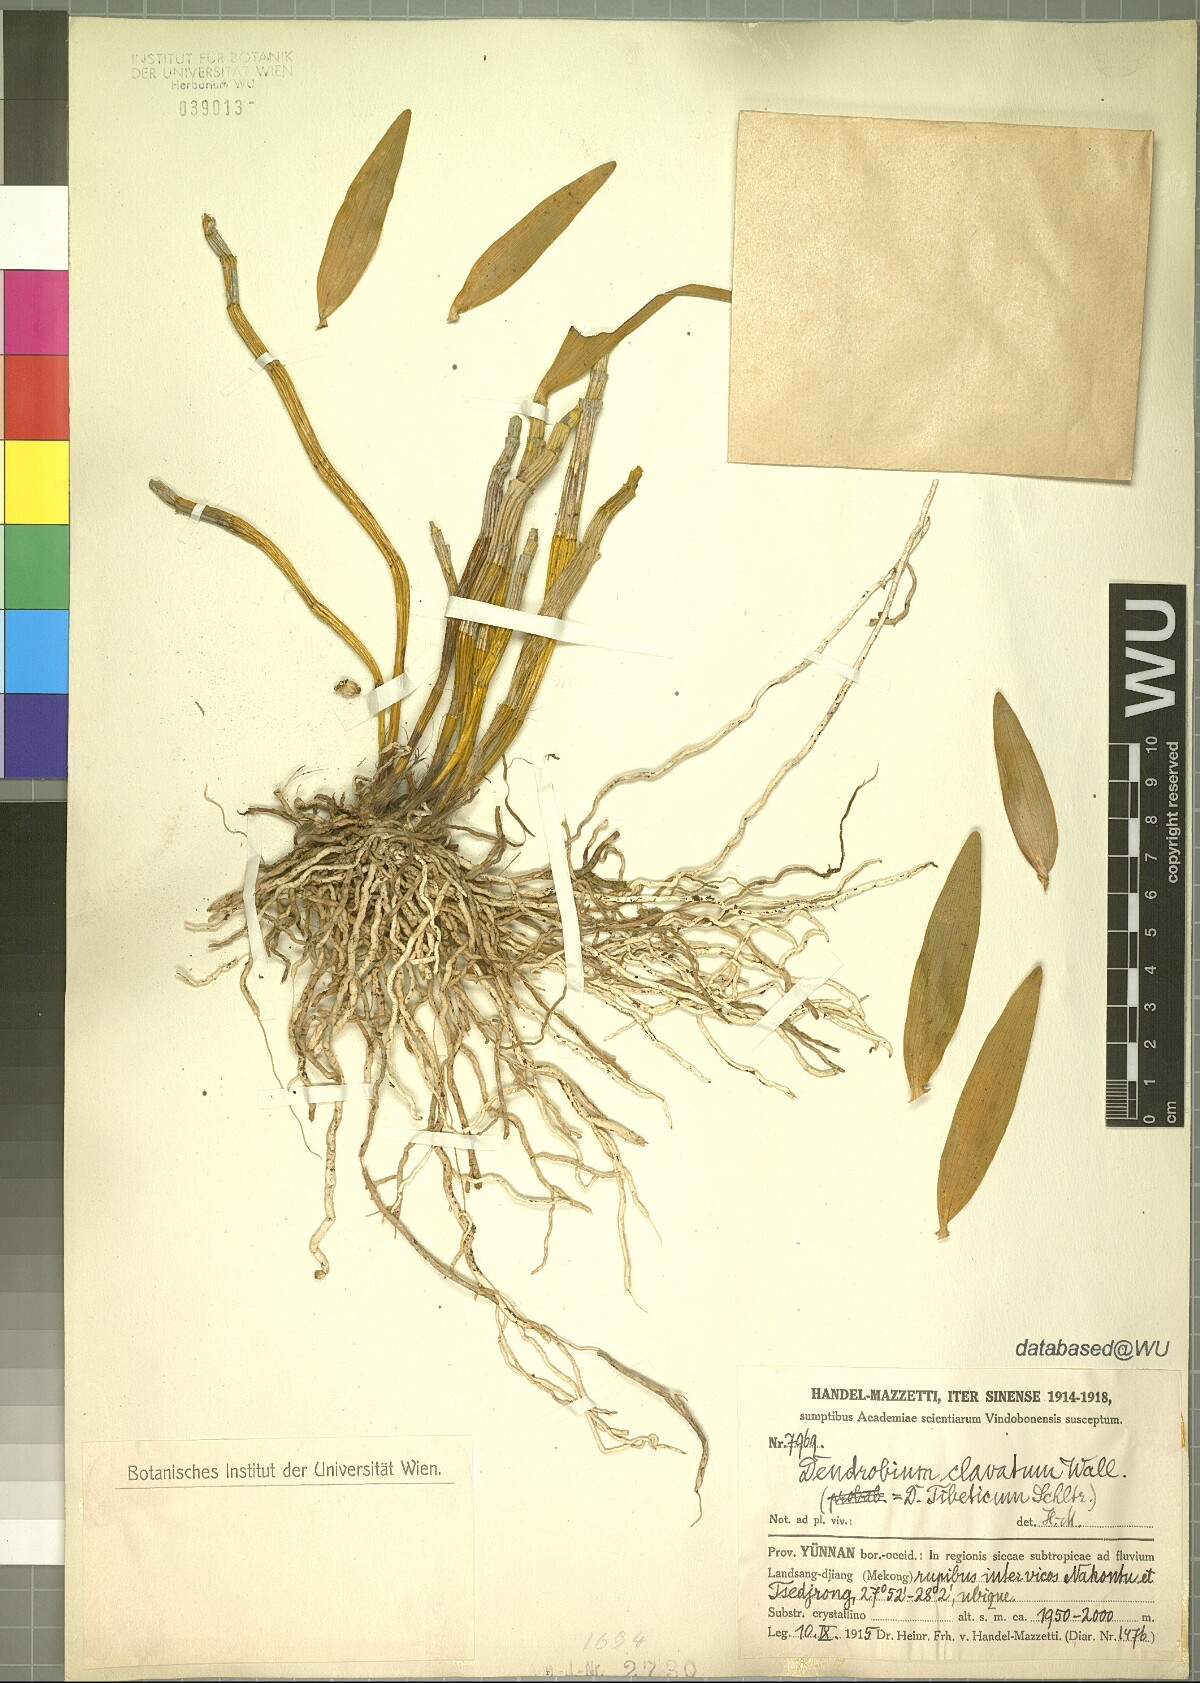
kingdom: Plantae
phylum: Tracheophyta
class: Liliopsida
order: Asparagales
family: Orchidaceae
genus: Dendrobium
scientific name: Dendrobium clavatum
